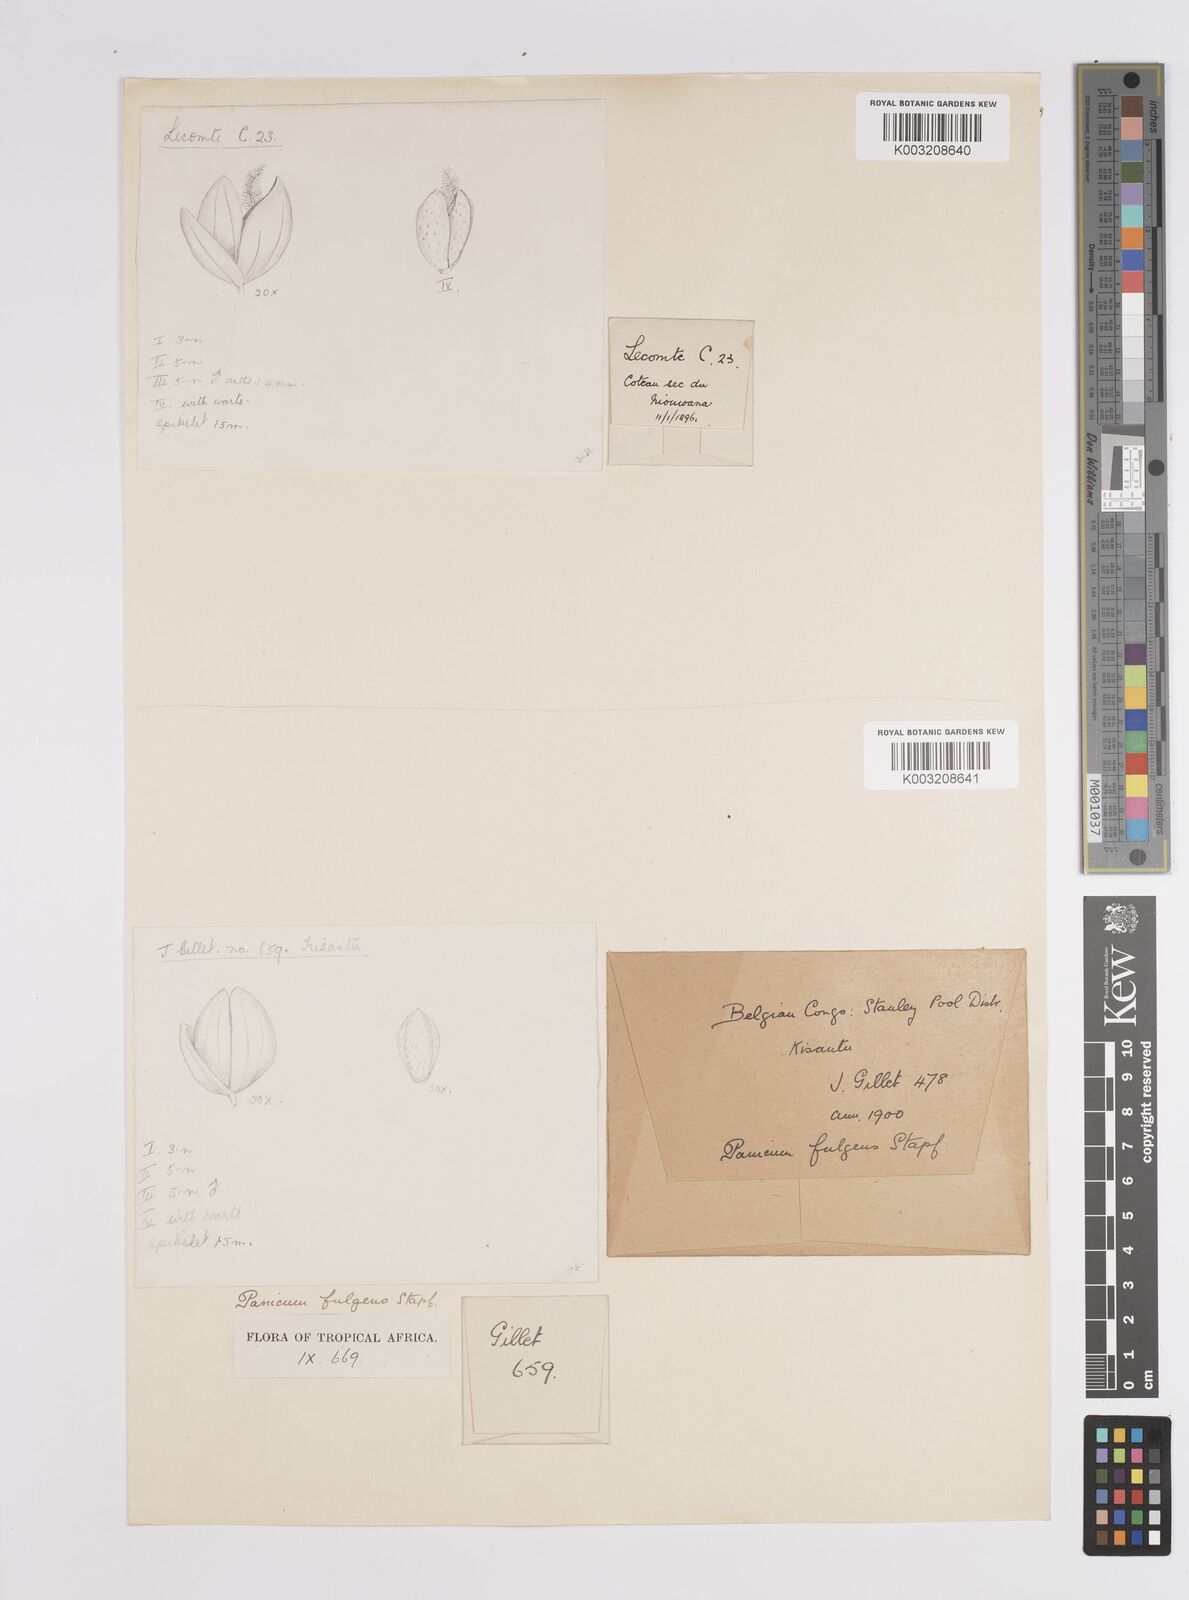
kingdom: Plantae
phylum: Tracheophyta
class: Liliopsida
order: Poales
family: Poaceae
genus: Trichanthecium
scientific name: Trichanthecium nervatum
